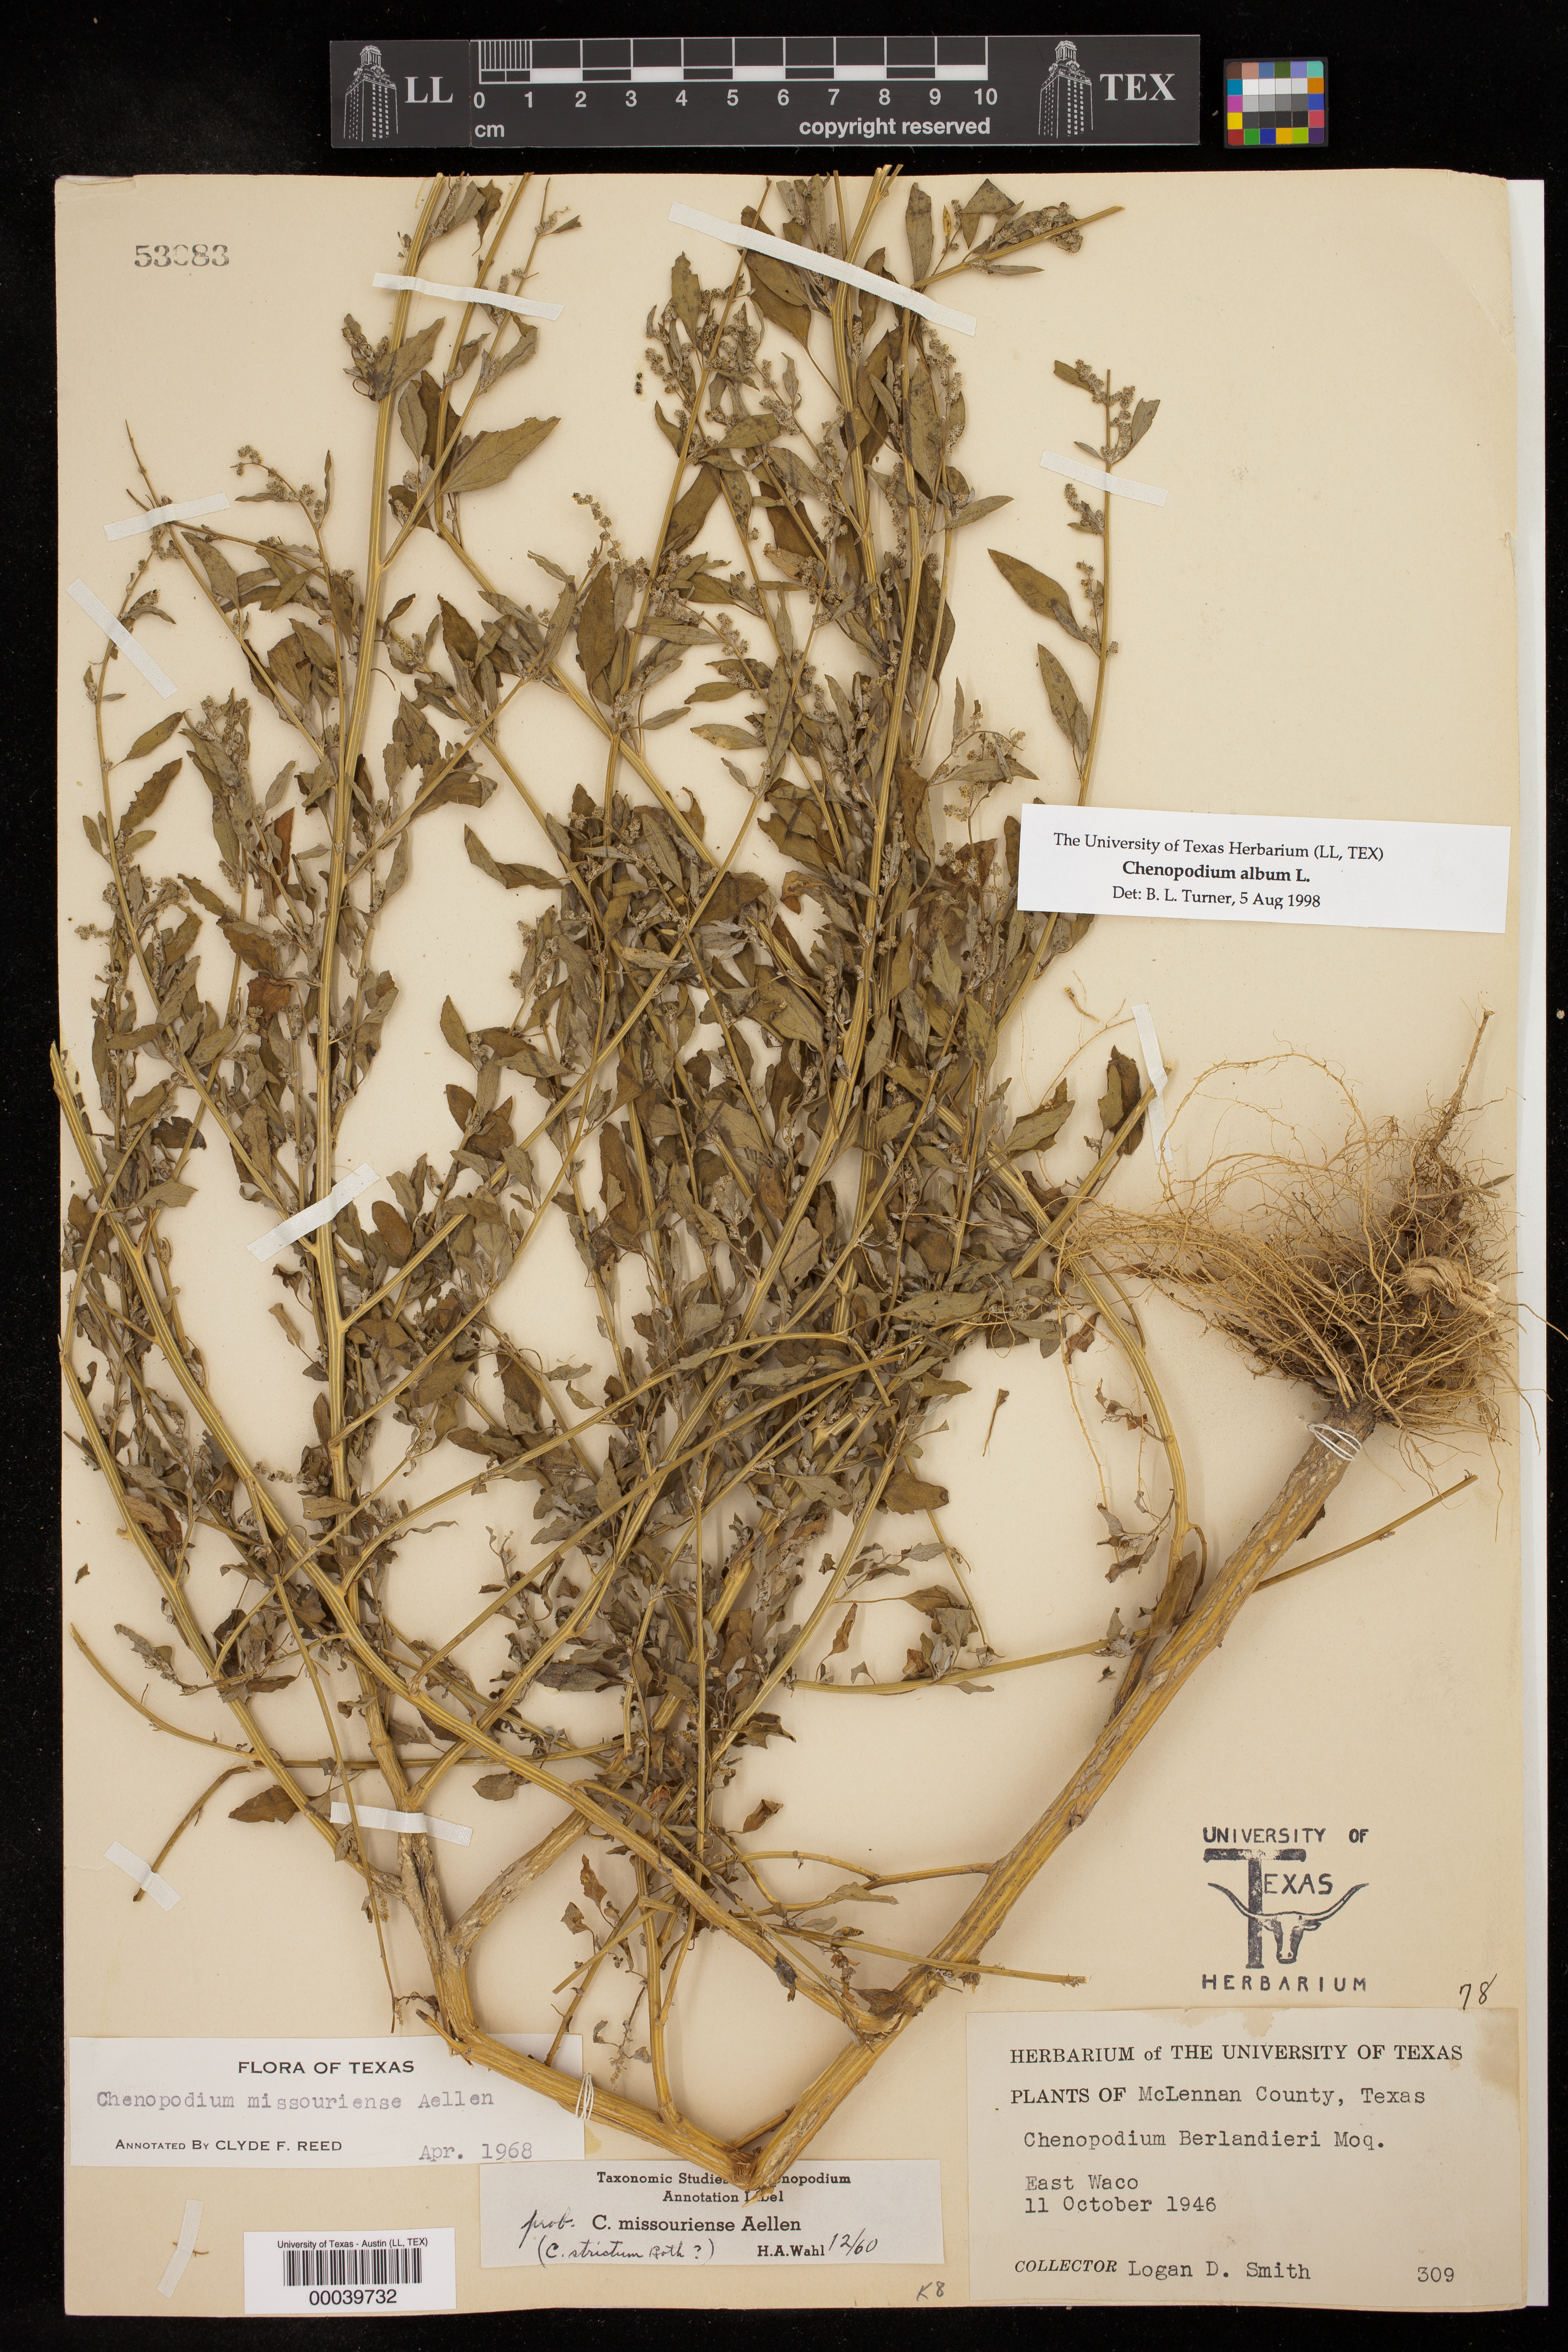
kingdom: Plantae
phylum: Tracheophyta
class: Magnoliopsida
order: Caryophyllales
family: Amaranthaceae
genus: Chenopodium
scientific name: Chenopodium album
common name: Fat-hen
